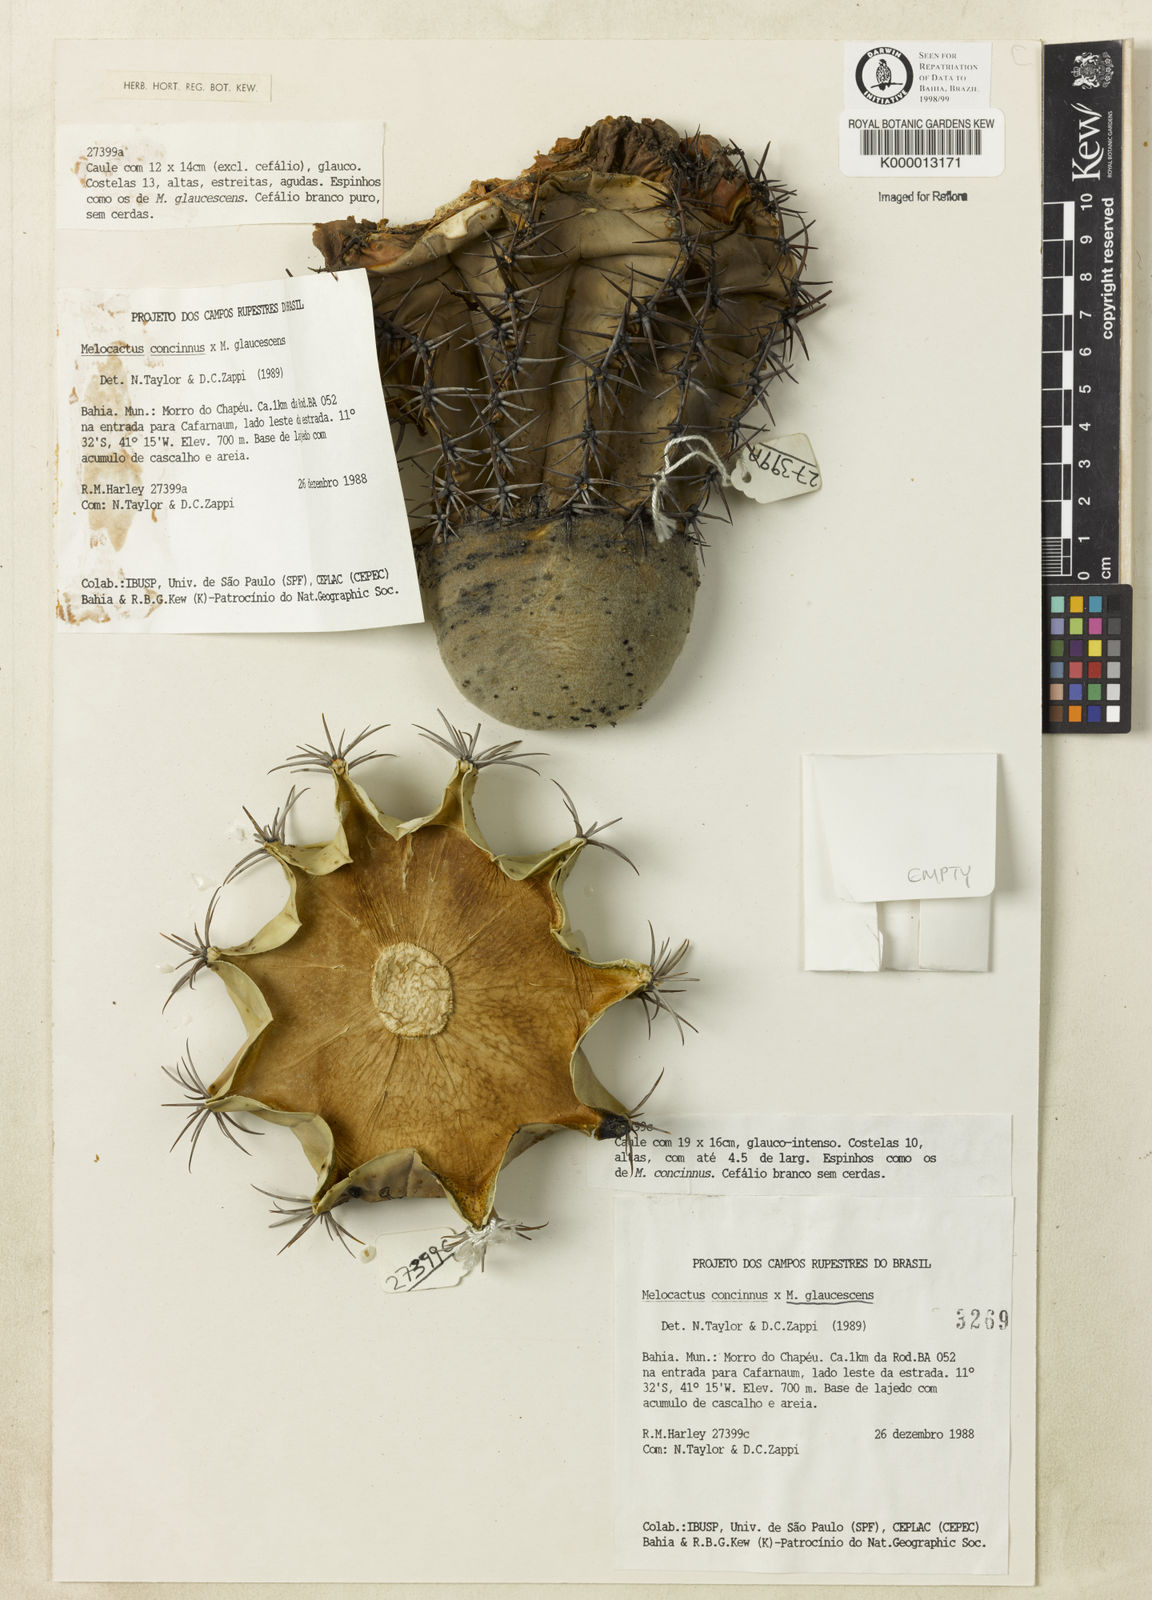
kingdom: Plantae
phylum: Tracheophyta
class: Magnoliopsida
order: Caryophyllales
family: Cactaceae
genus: Melocactus
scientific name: Melocactus pruinosus
